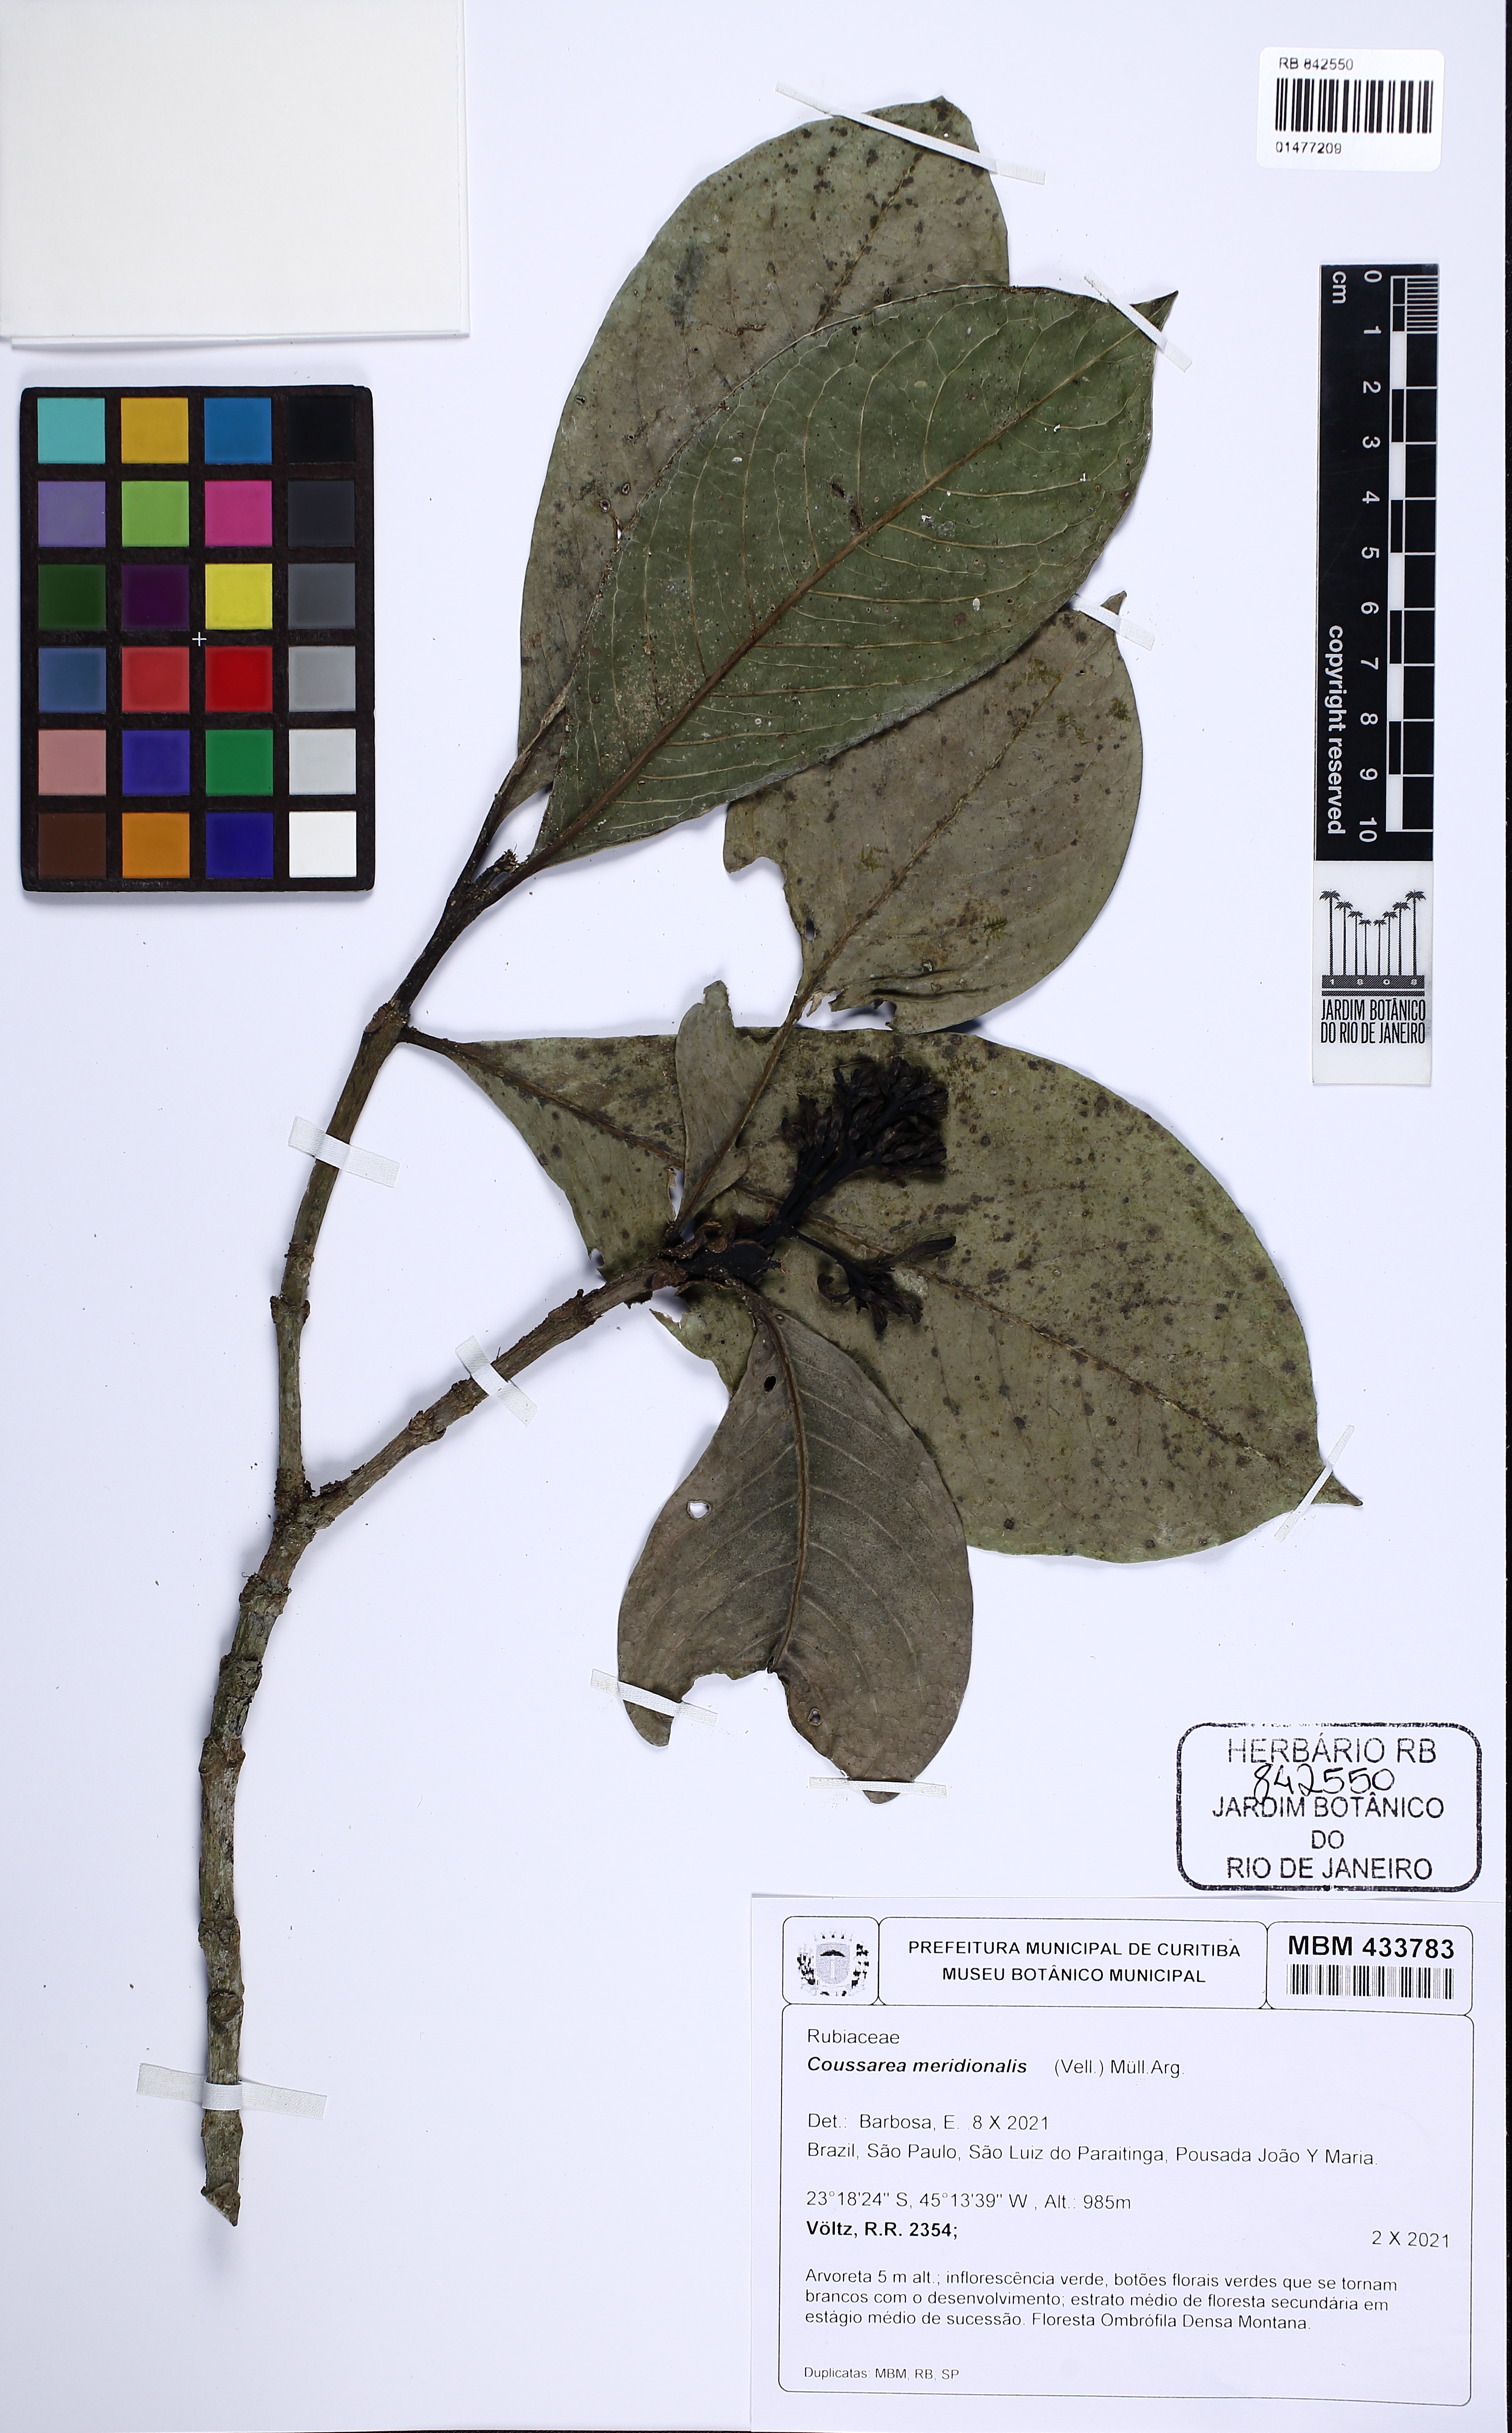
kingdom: Plantae
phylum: Tracheophyta
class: Magnoliopsida
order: Gentianales
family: Rubiaceae
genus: Coussarea
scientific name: Coussarea meridionalis
